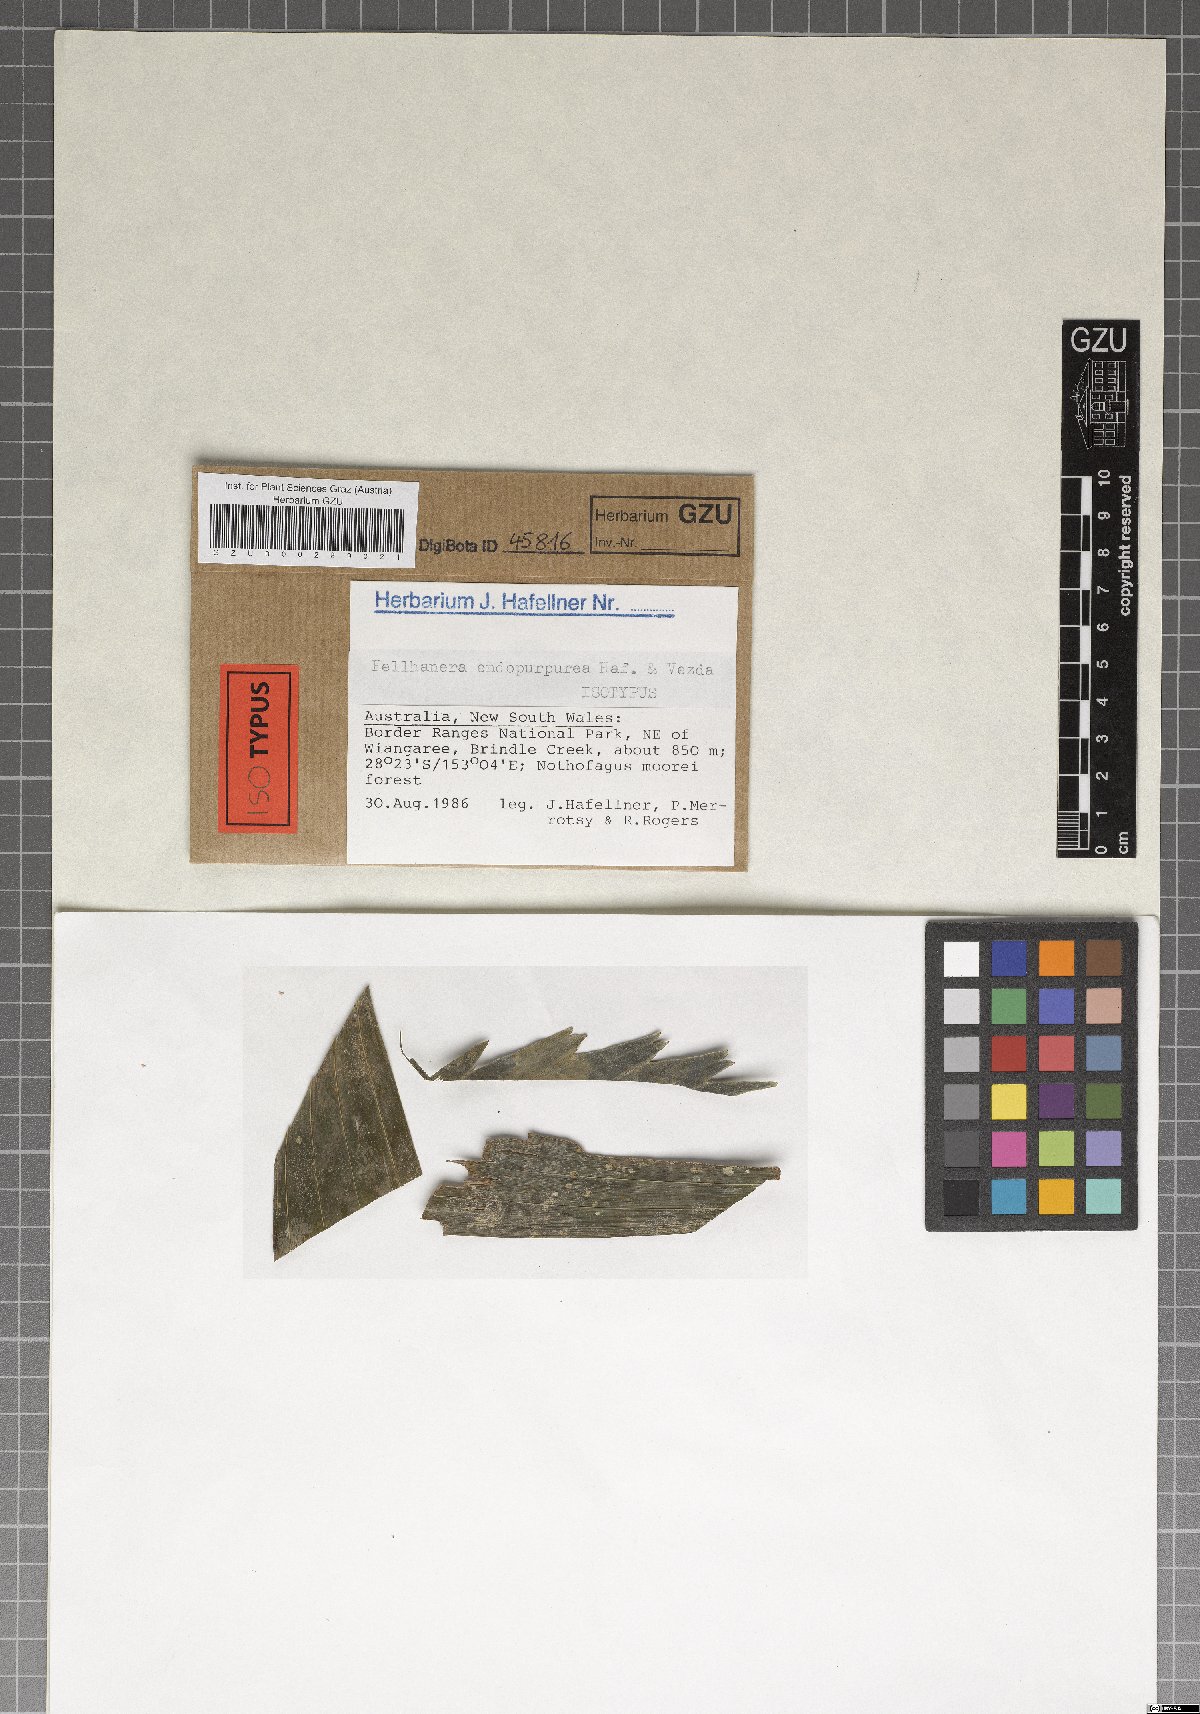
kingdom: Fungi
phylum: Ascomycota
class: Lecanoromycetes
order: Lecanorales
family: Byssolomataceae
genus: Fellhanera
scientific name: Fellhanera endopurpurea
